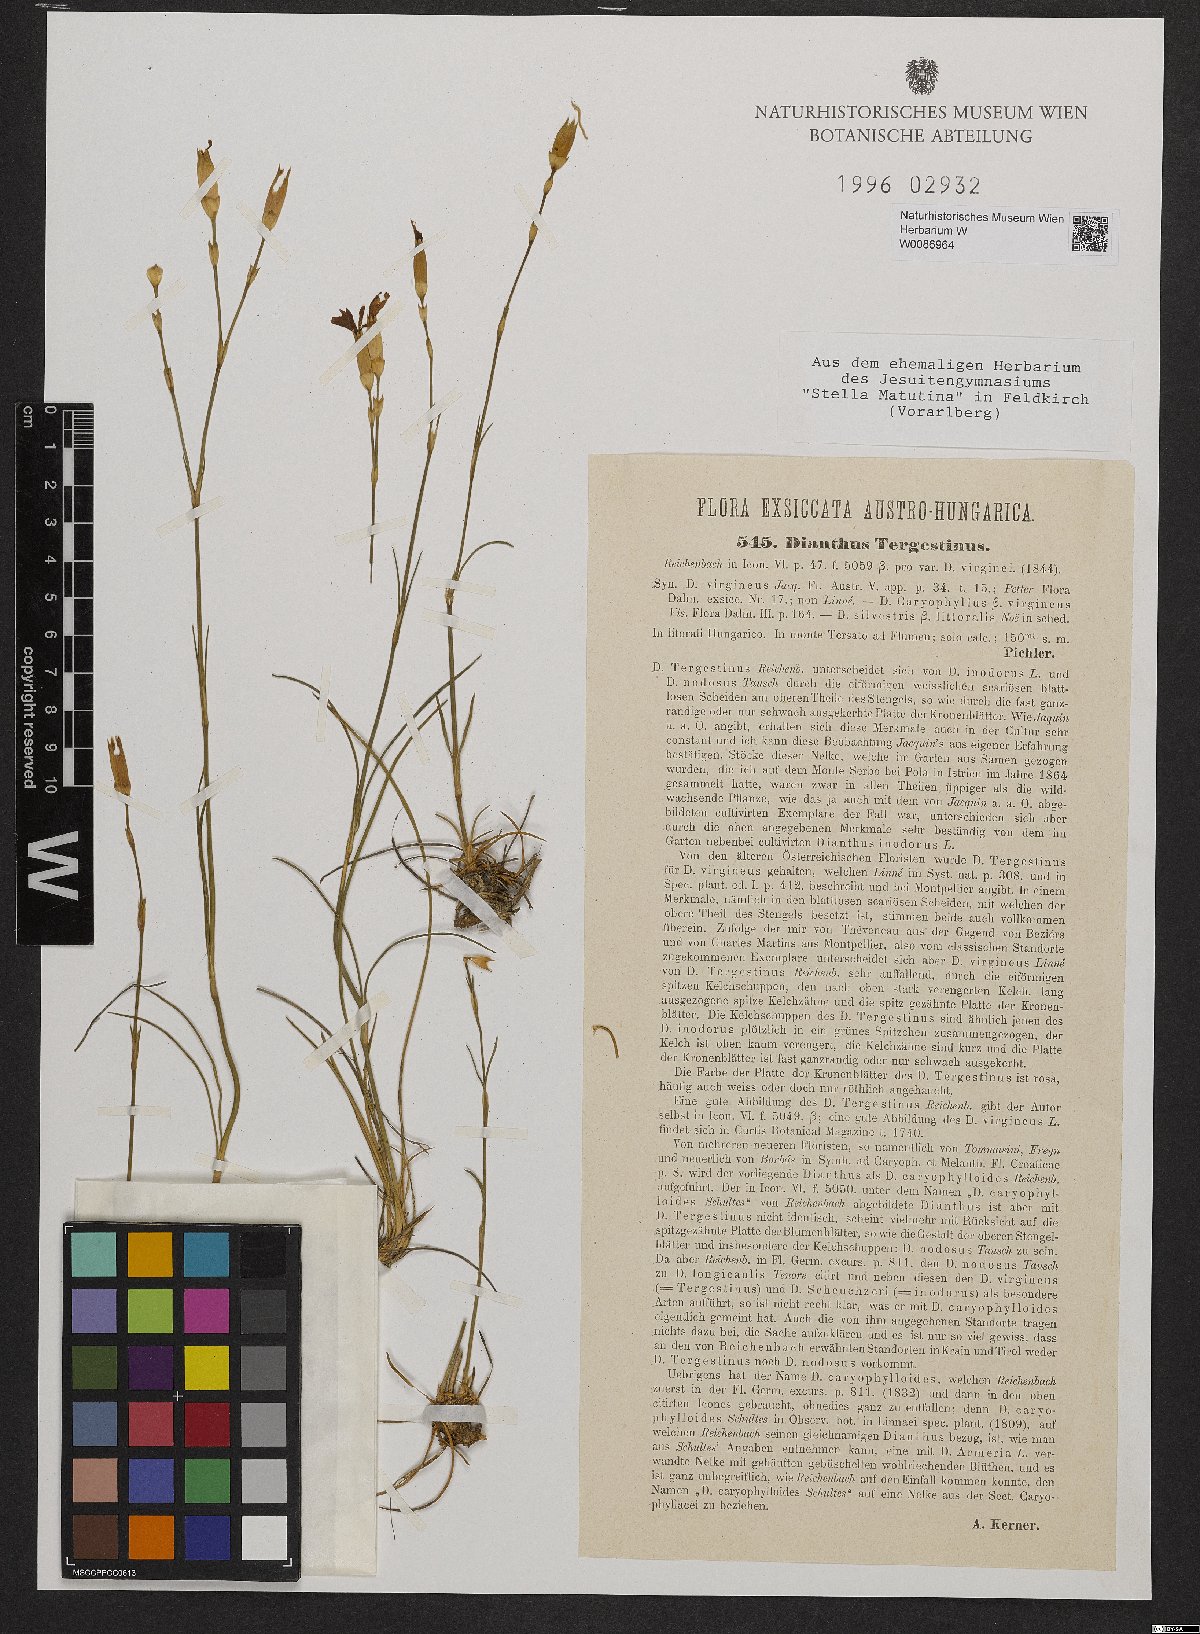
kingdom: Plantae
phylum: Tracheophyta
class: Magnoliopsida
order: Caryophyllales
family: Caryophyllaceae
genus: Dianthus
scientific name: Dianthus sylvestris
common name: Wood pink
